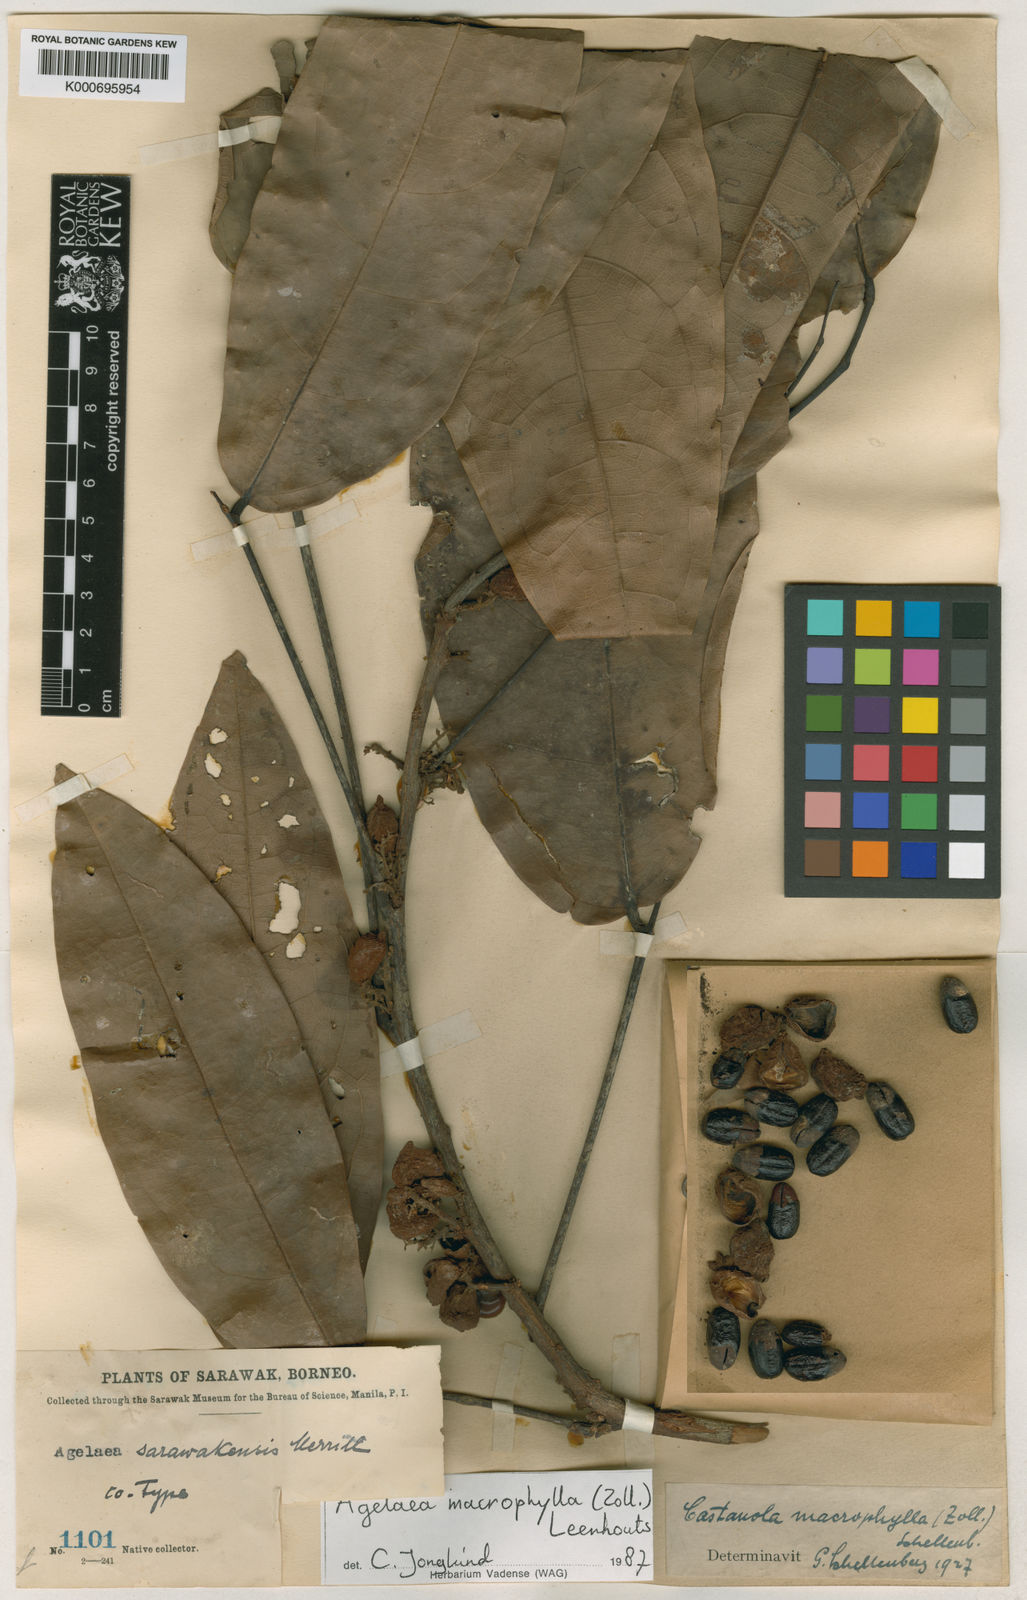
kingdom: Plantae
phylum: Tracheophyta
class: Magnoliopsida
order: Oxalidales
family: Connaraceae
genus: Agelaea
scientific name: Agelaea macrophylla
